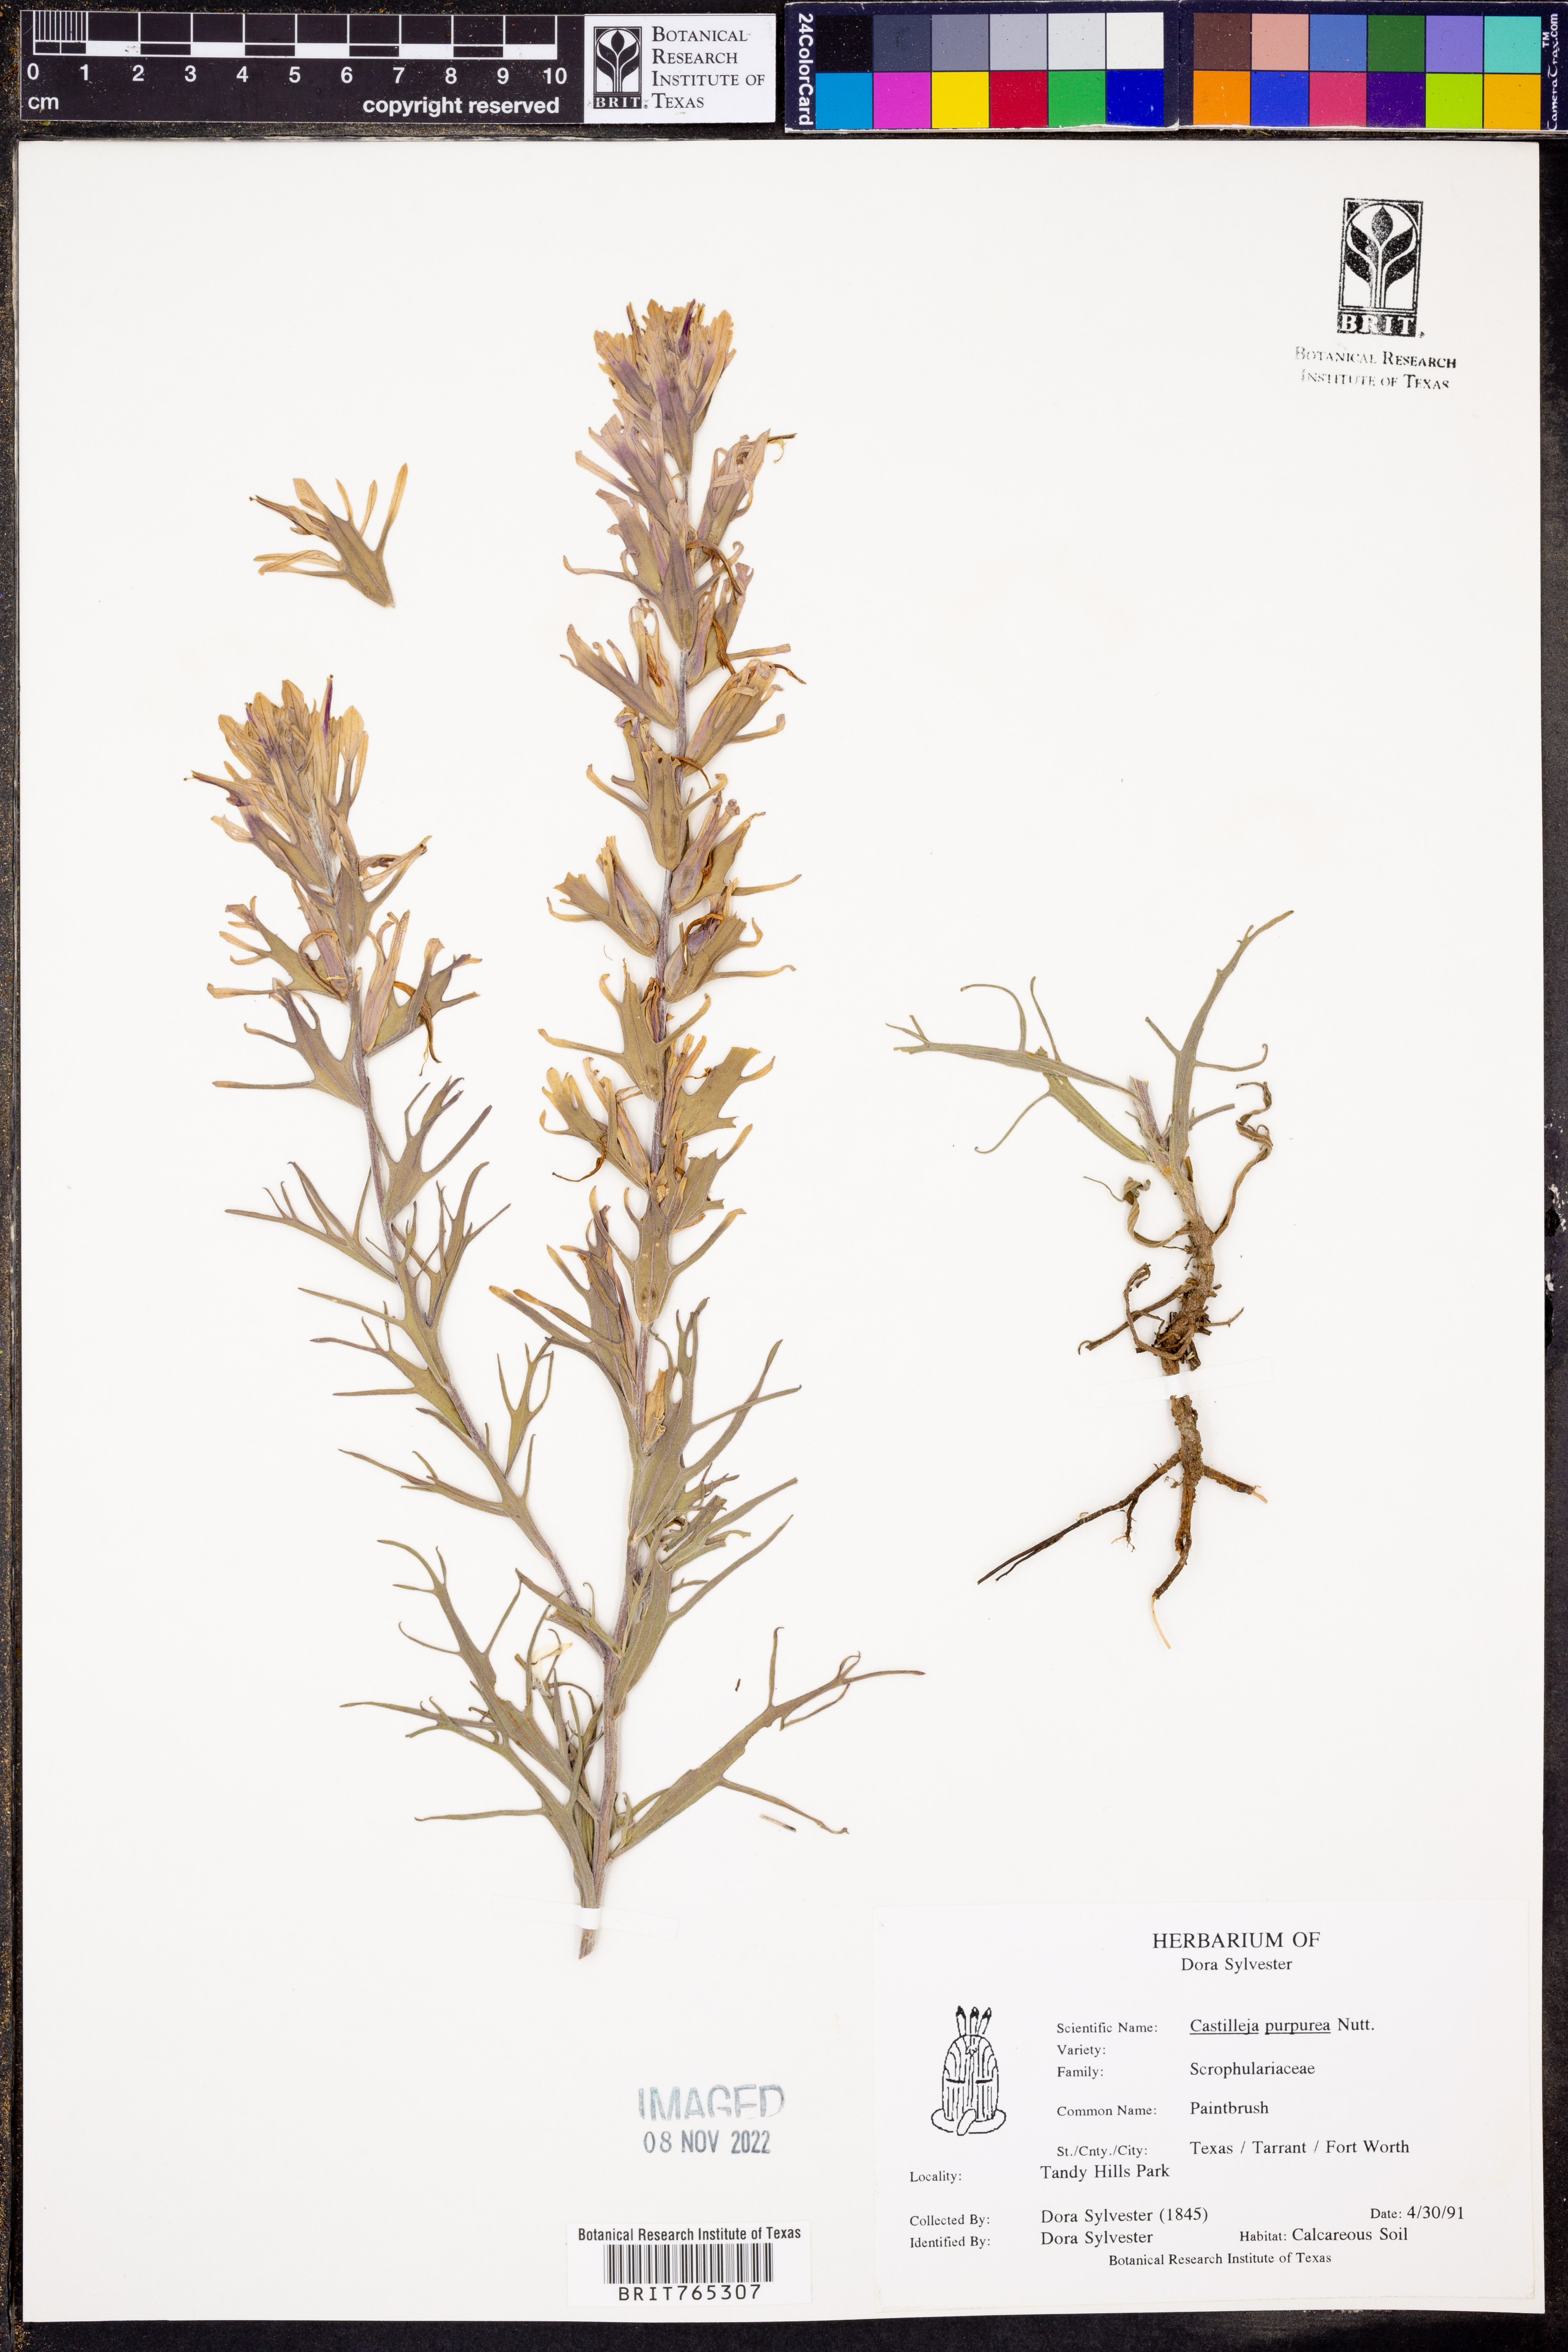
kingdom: Plantae
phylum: Tracheophyta
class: Magnoliopsida
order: Lamiales
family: Orobanchaceae
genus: Castilleja
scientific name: Castilleja purpurea
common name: Plains paintbrush
